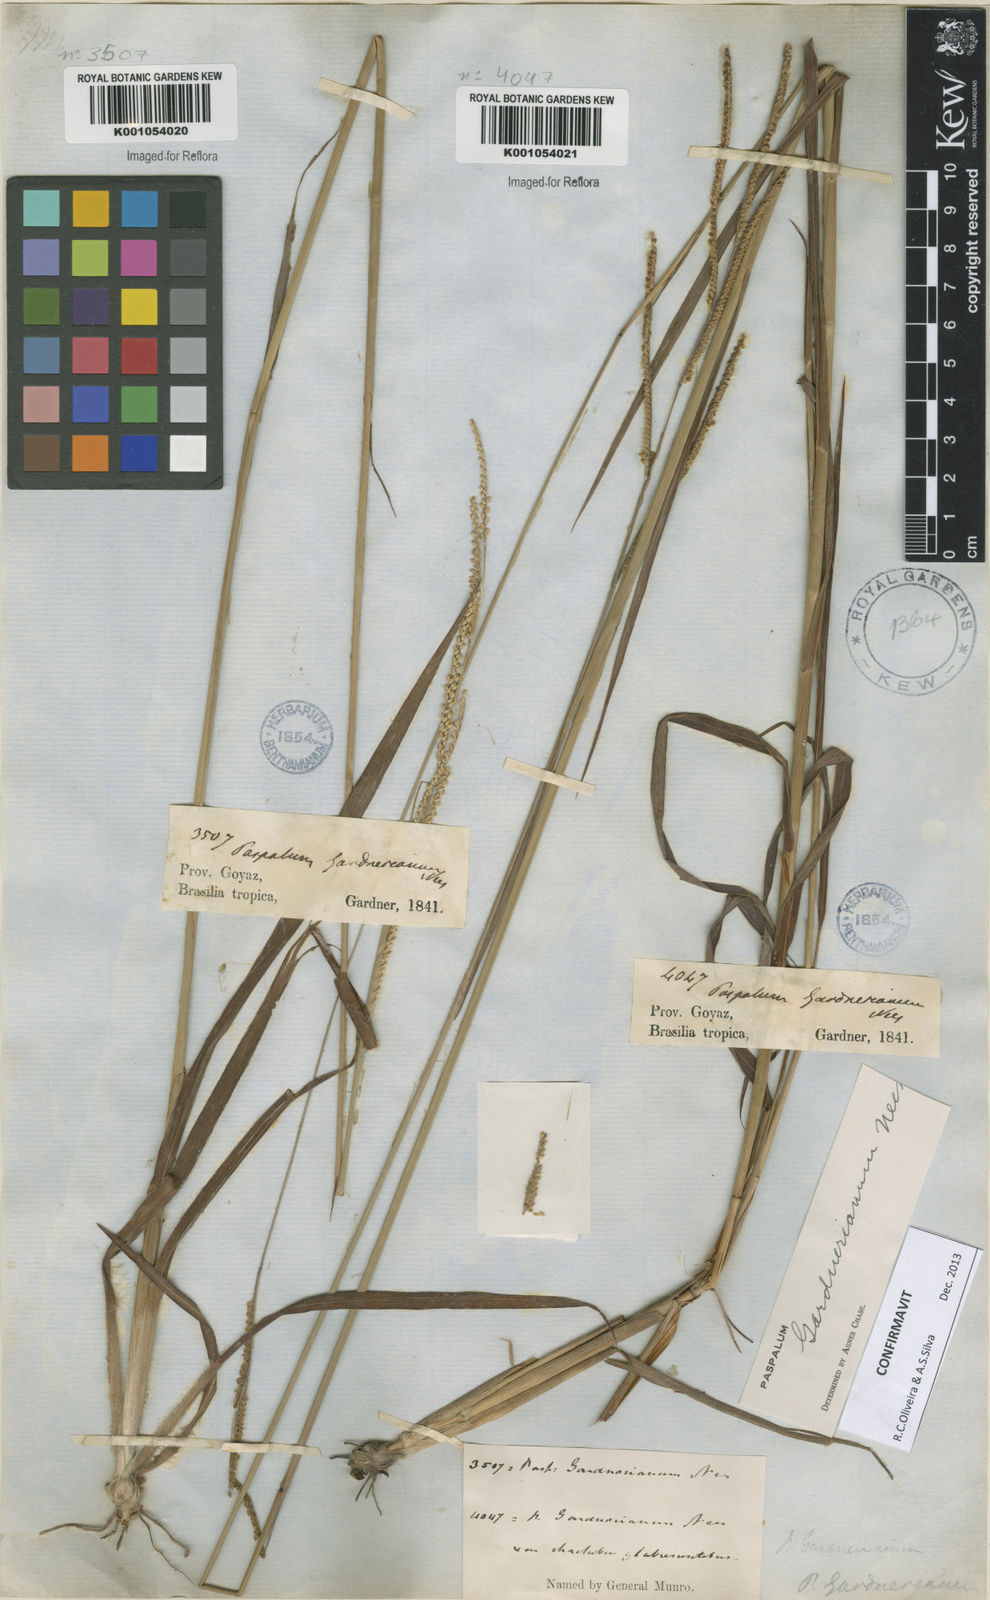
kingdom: Plantae
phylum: Tracheophyta
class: Liliopsida
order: Poales
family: Poaceae
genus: Paspalum
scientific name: Paspalum gardnerianum
